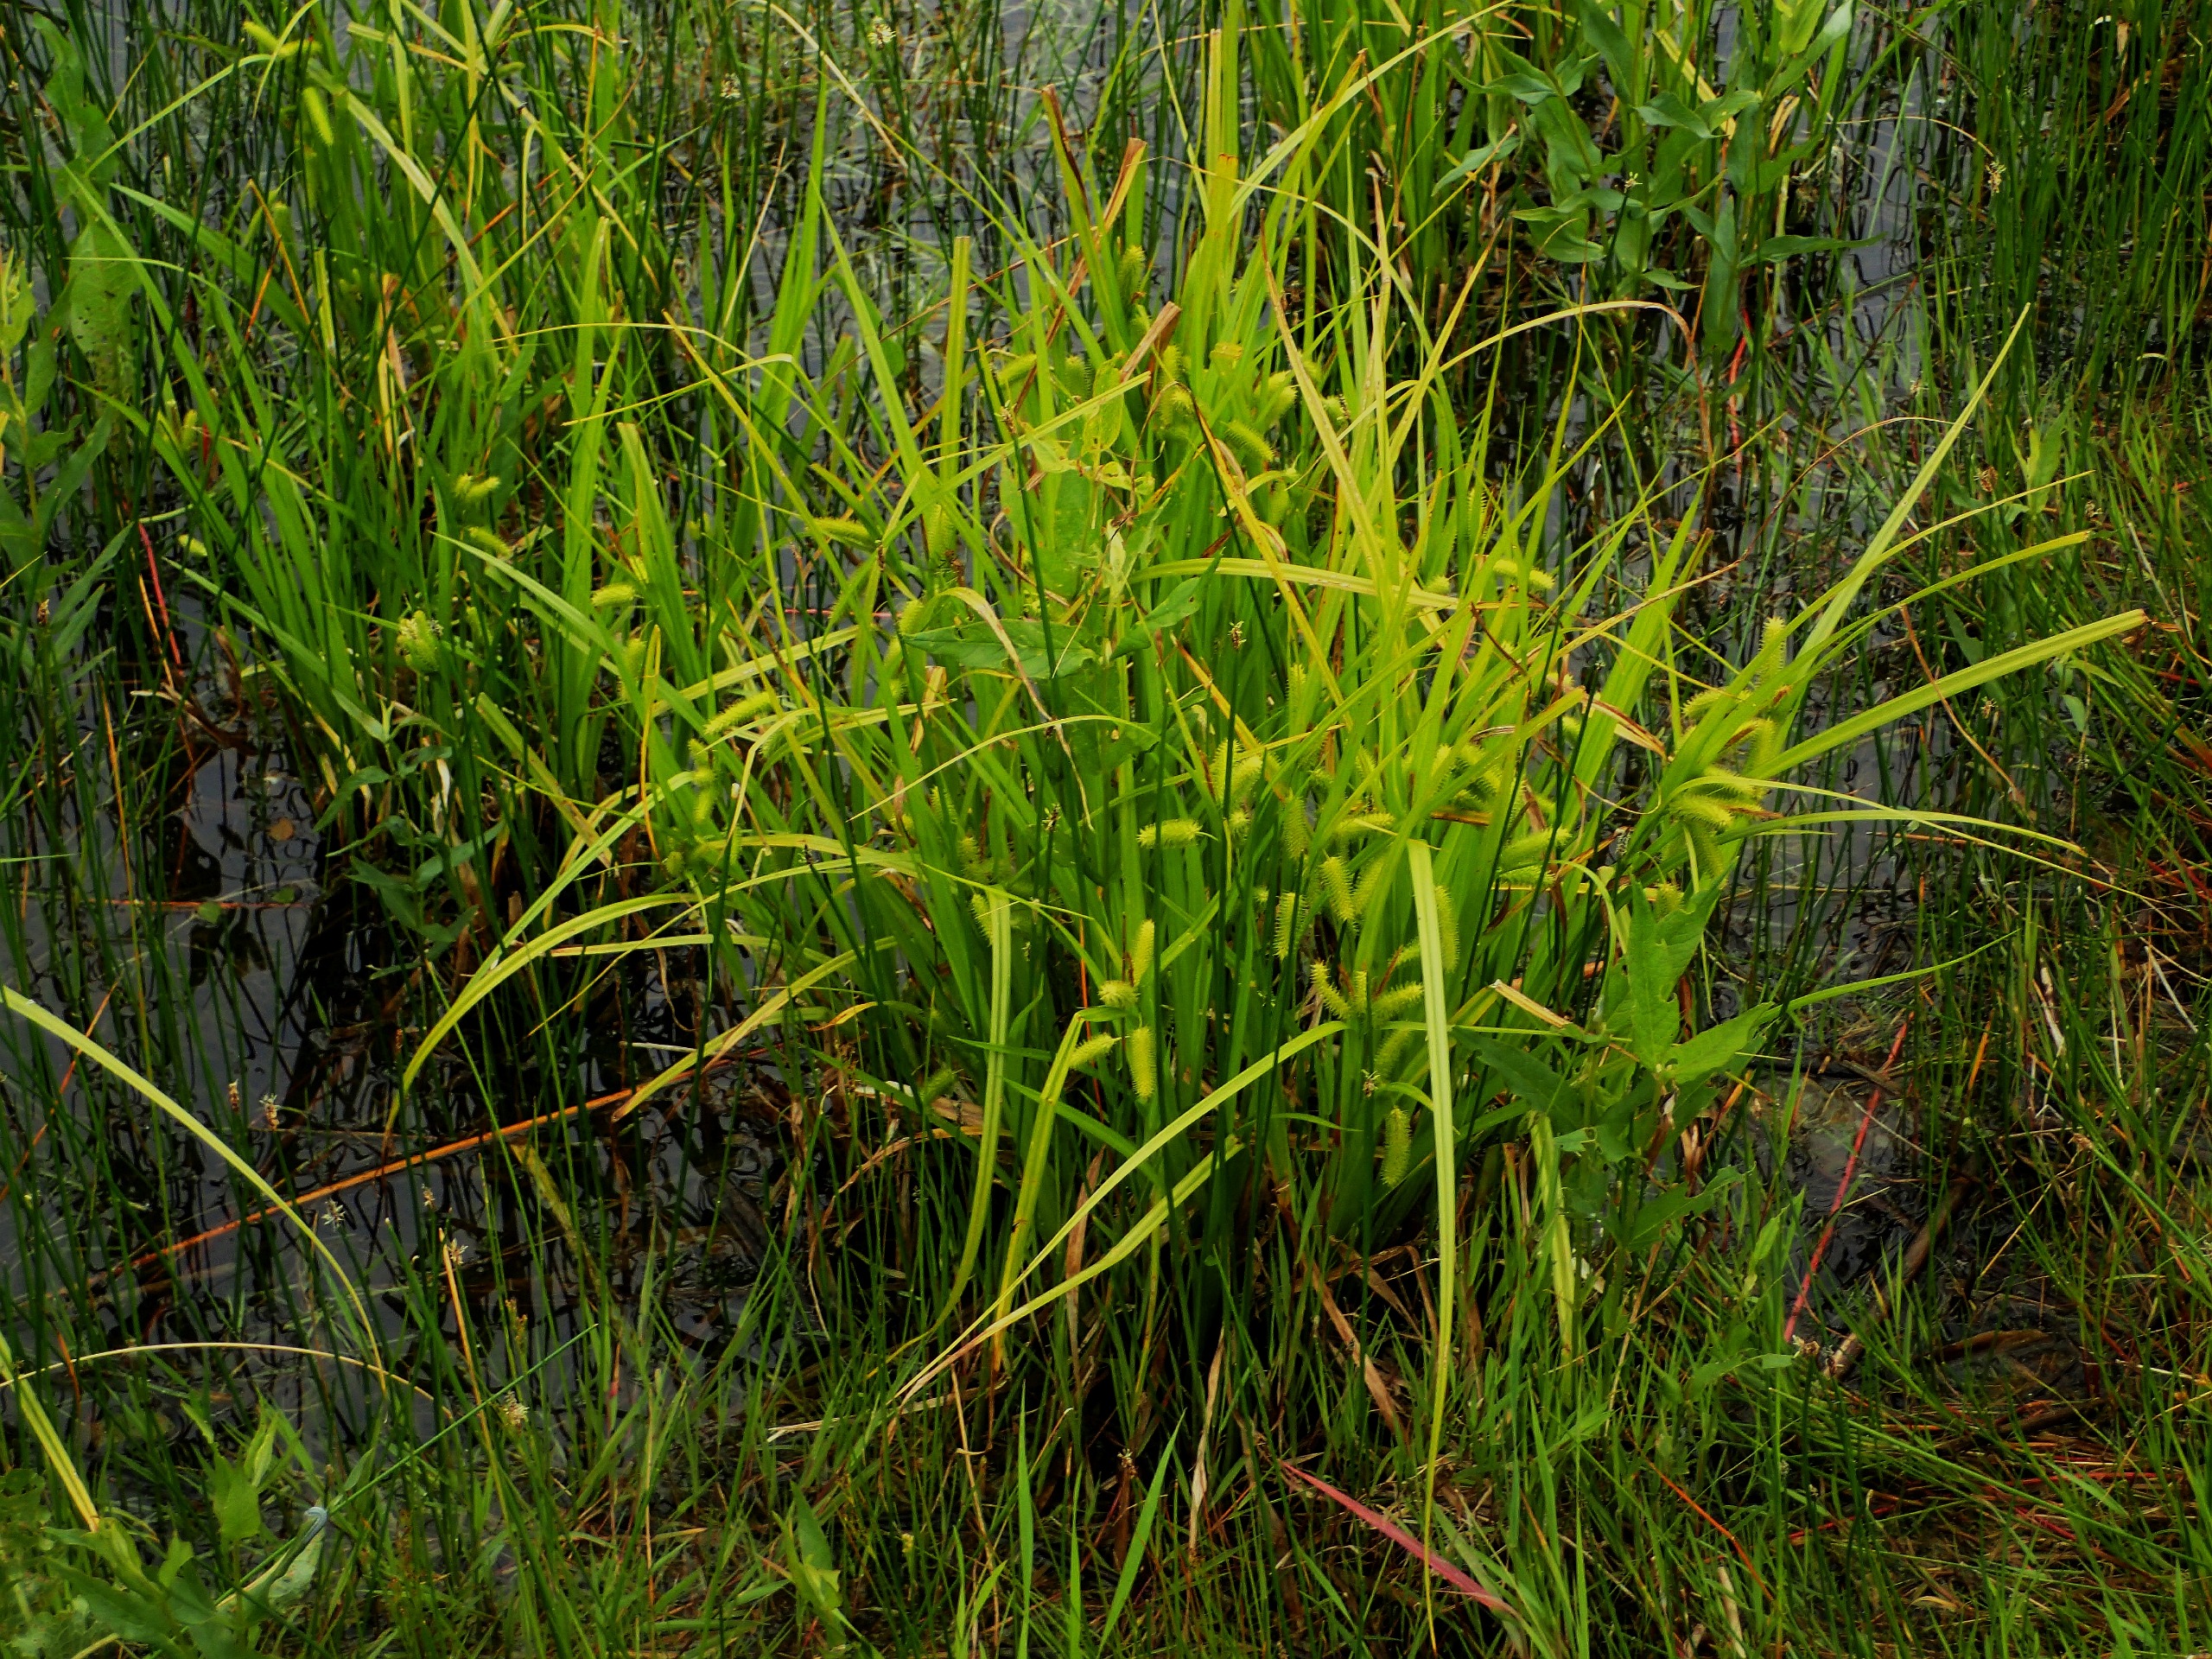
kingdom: Plantae
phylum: Tracheophyta
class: Liliopsida
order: Poales
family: Cyperaceae
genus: Carex
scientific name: Carex pseudocyperus
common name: Knippe-star
